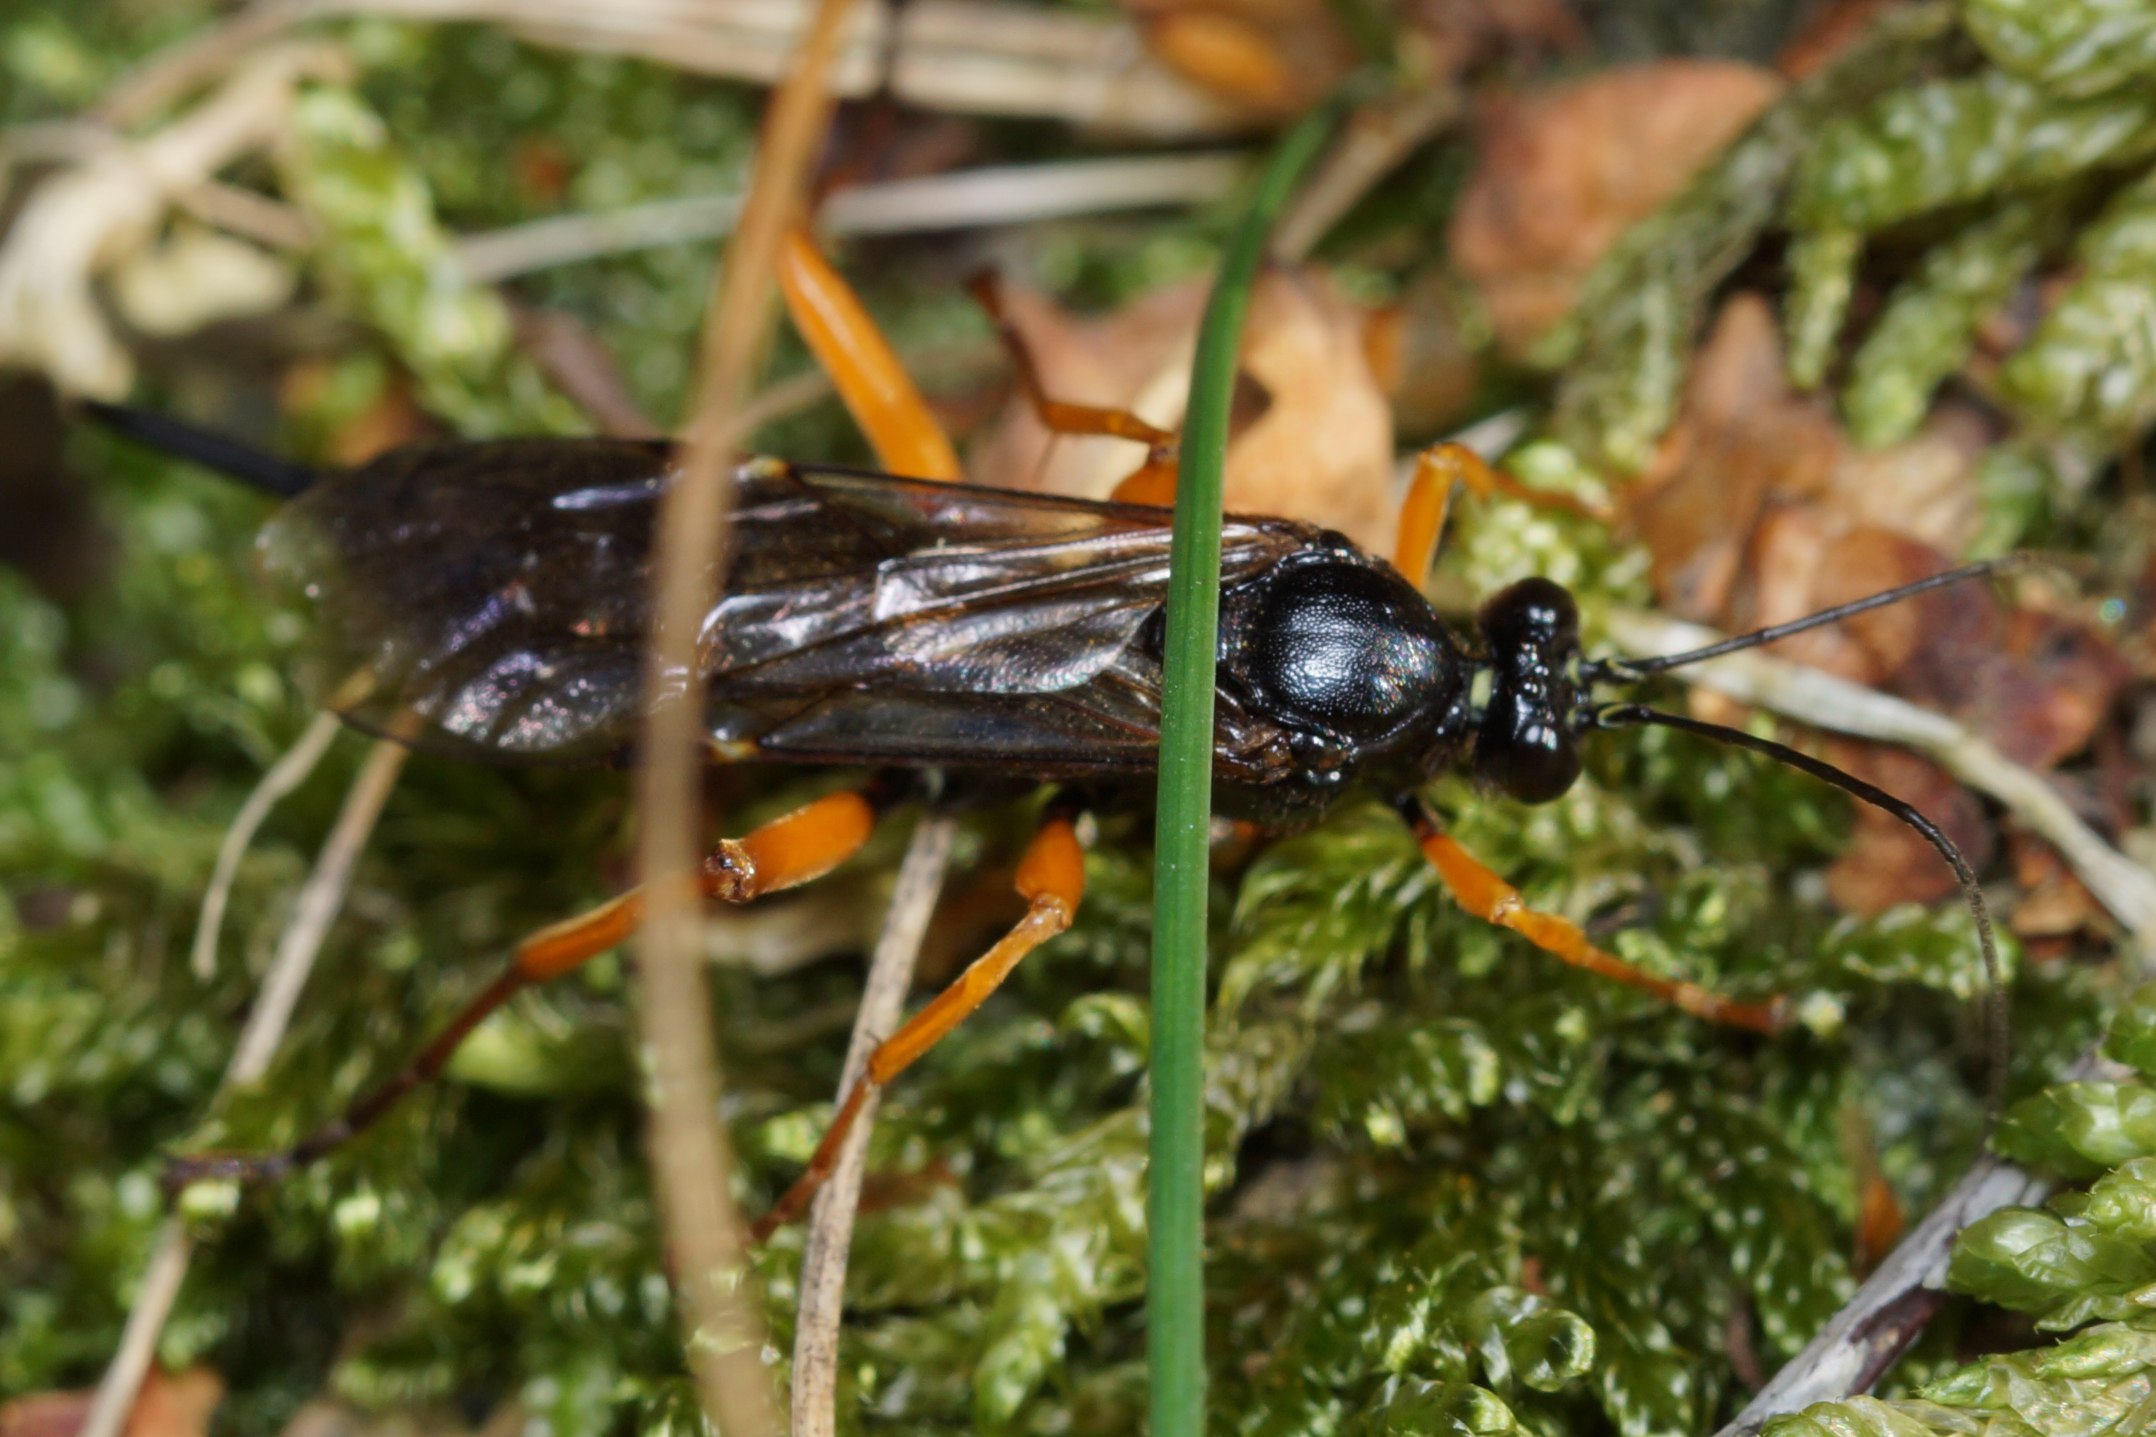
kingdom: Animalia
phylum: Arthropoda
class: Insecta
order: Hymenoptera
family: Ichneumonidae
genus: Pimpla
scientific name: Pimpla rufipes
